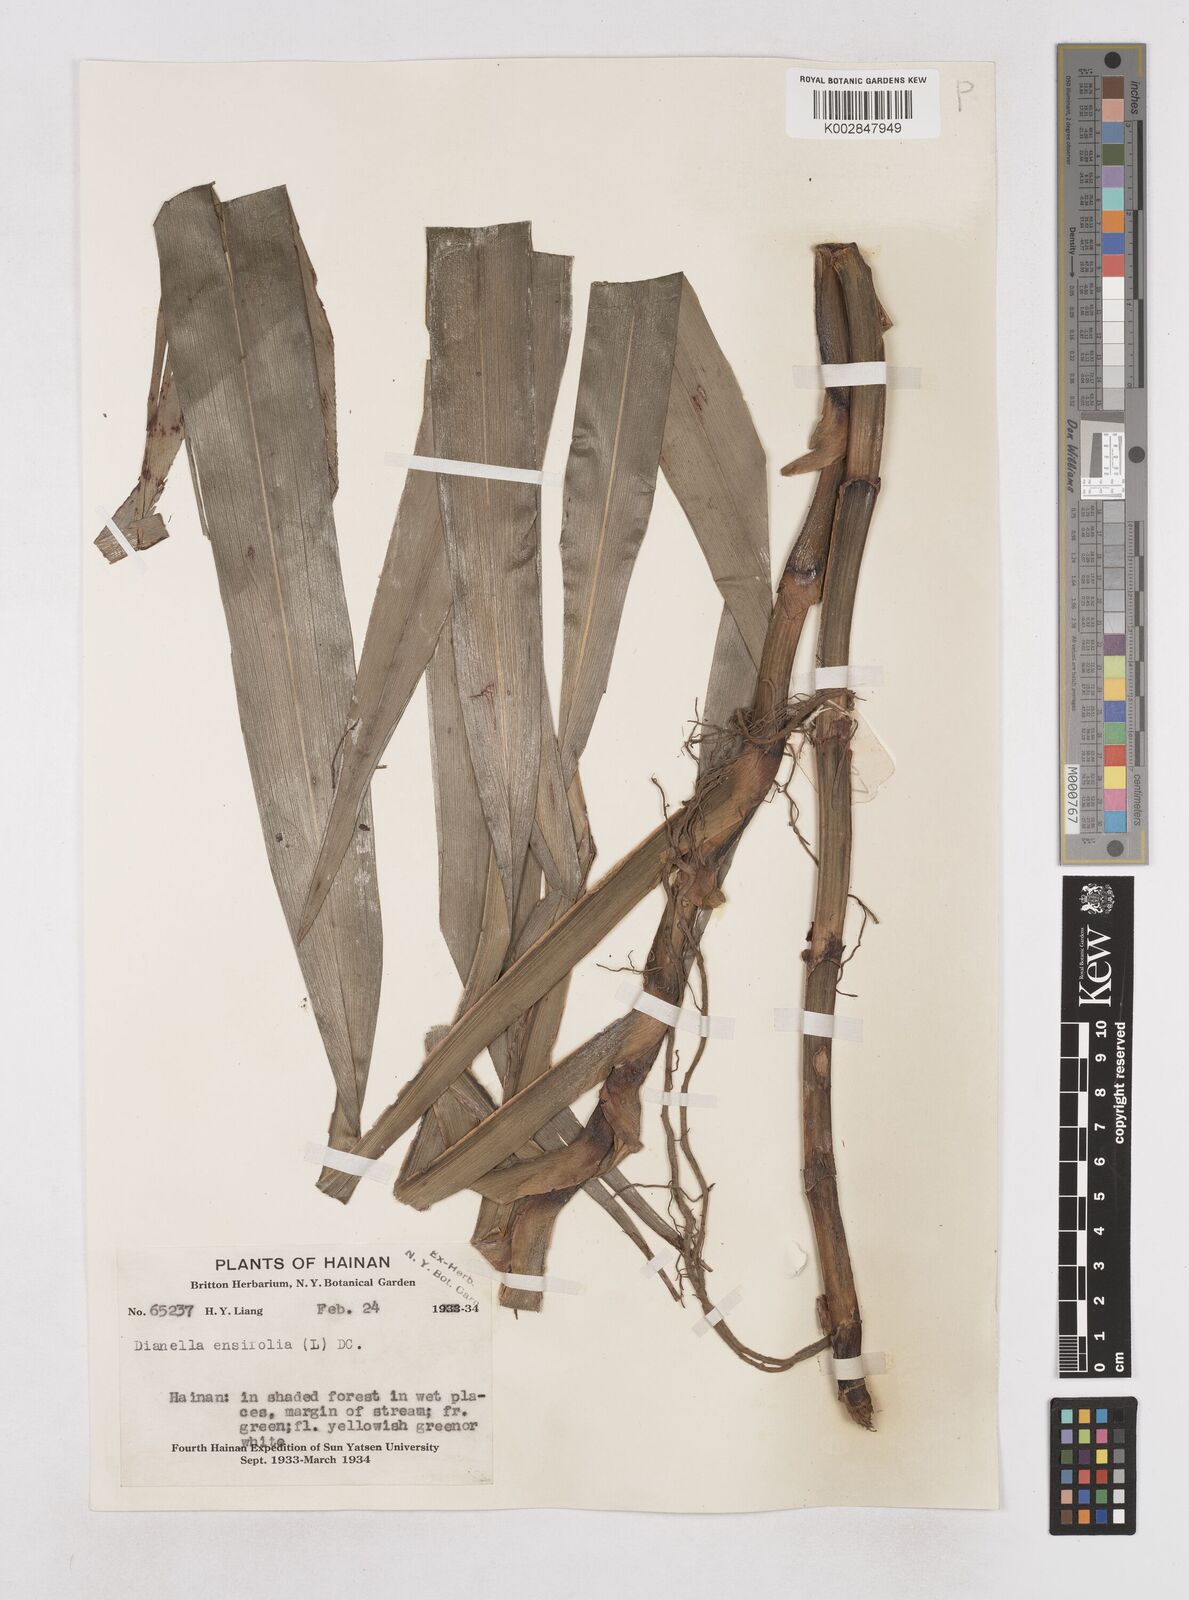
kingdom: Plantae
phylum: Tracheophyta
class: Liliopsida
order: Asparagales
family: Asphodelaceae
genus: Dianella
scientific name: Dianella ensifolia
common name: New zealand lilyplant
